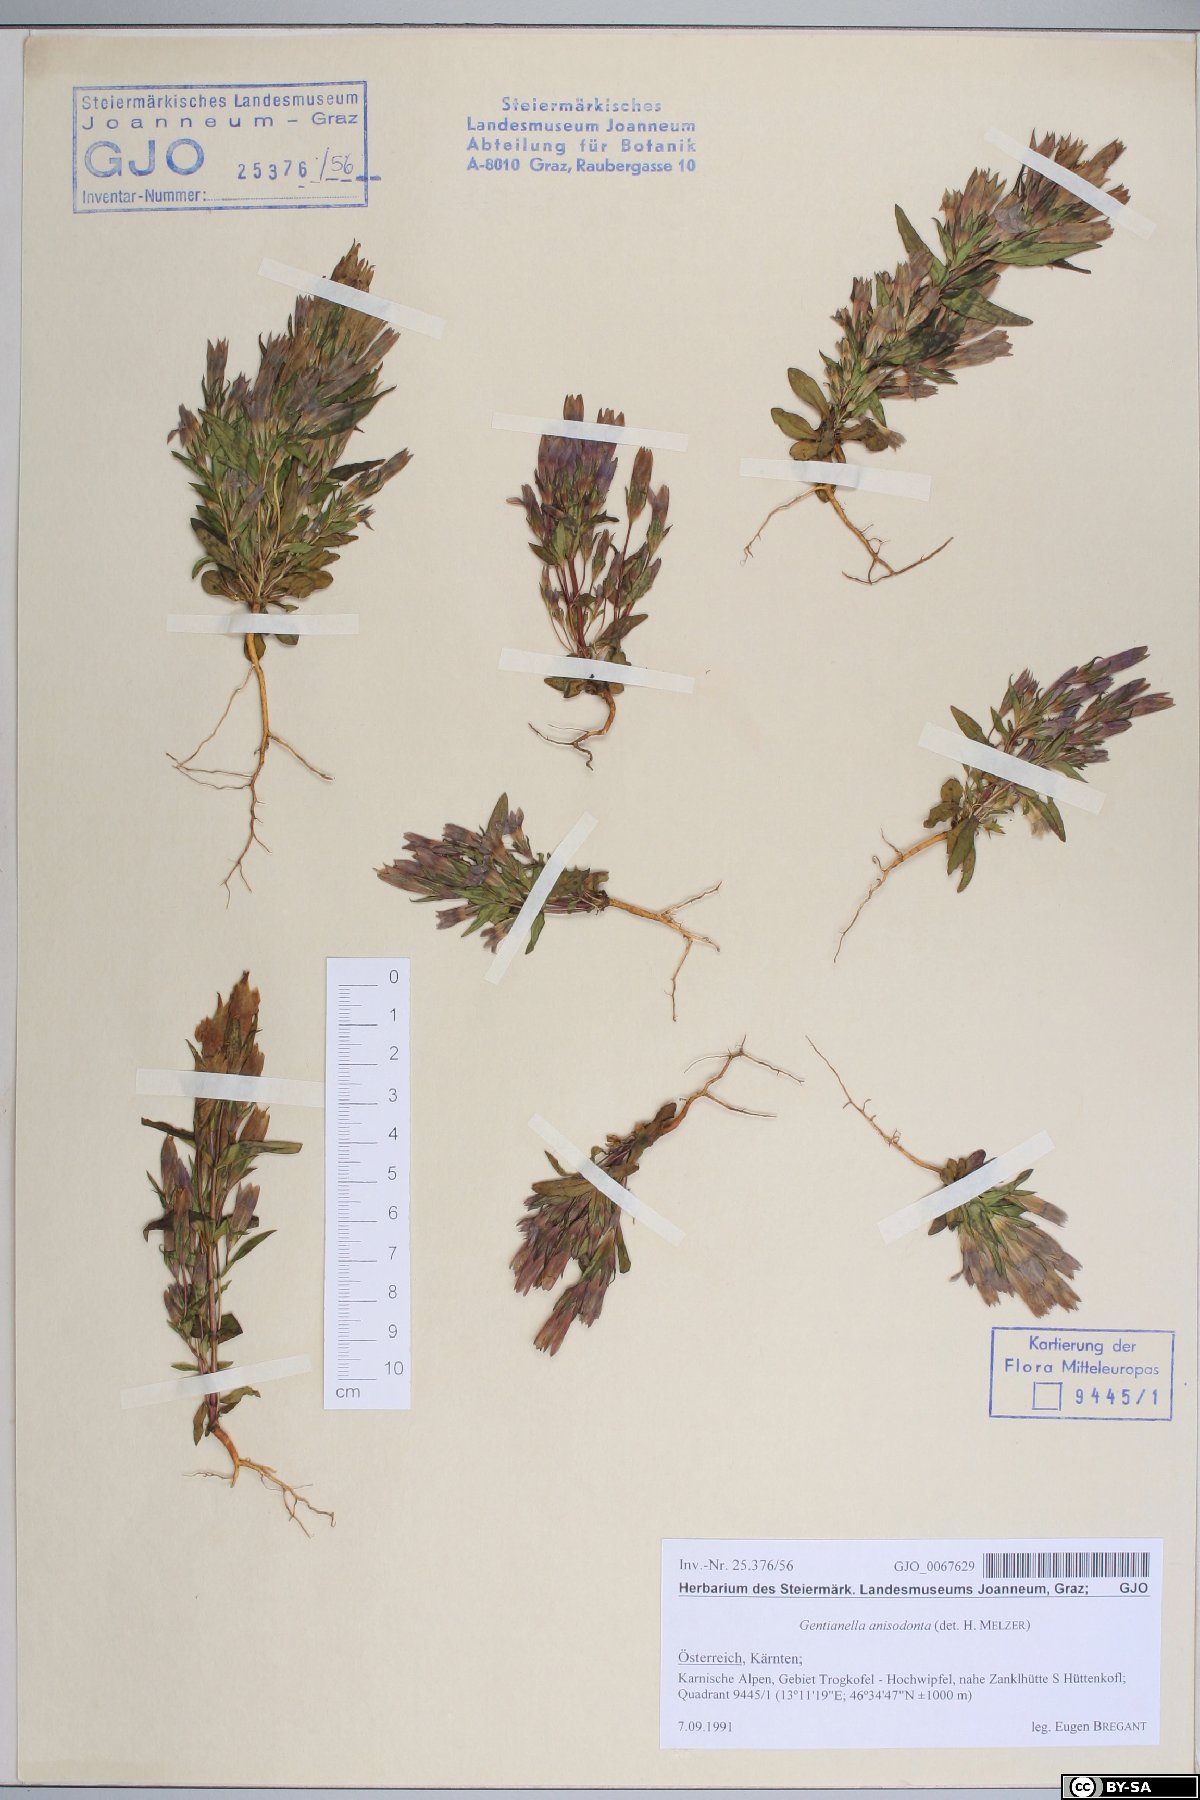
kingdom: Plantae
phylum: Tracheophyta
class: Magnoliopsida
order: Gentianales
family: Gentianaceae
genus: Gentianella
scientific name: Gentianella anisodonta
